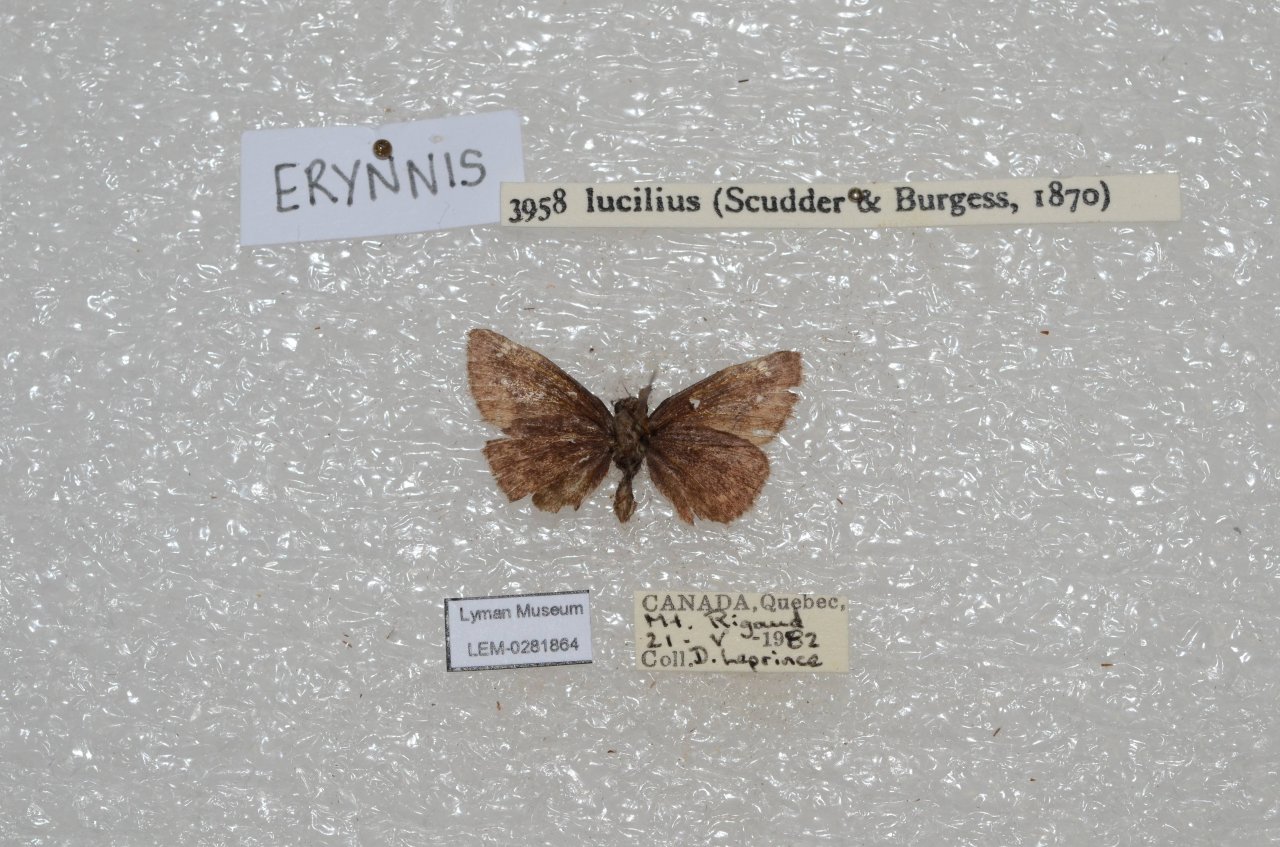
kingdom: Animalia
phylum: Arthropoda
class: Insecta
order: Lepidoptera
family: Hesperiidae
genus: Erynnis
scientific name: Erynnis
